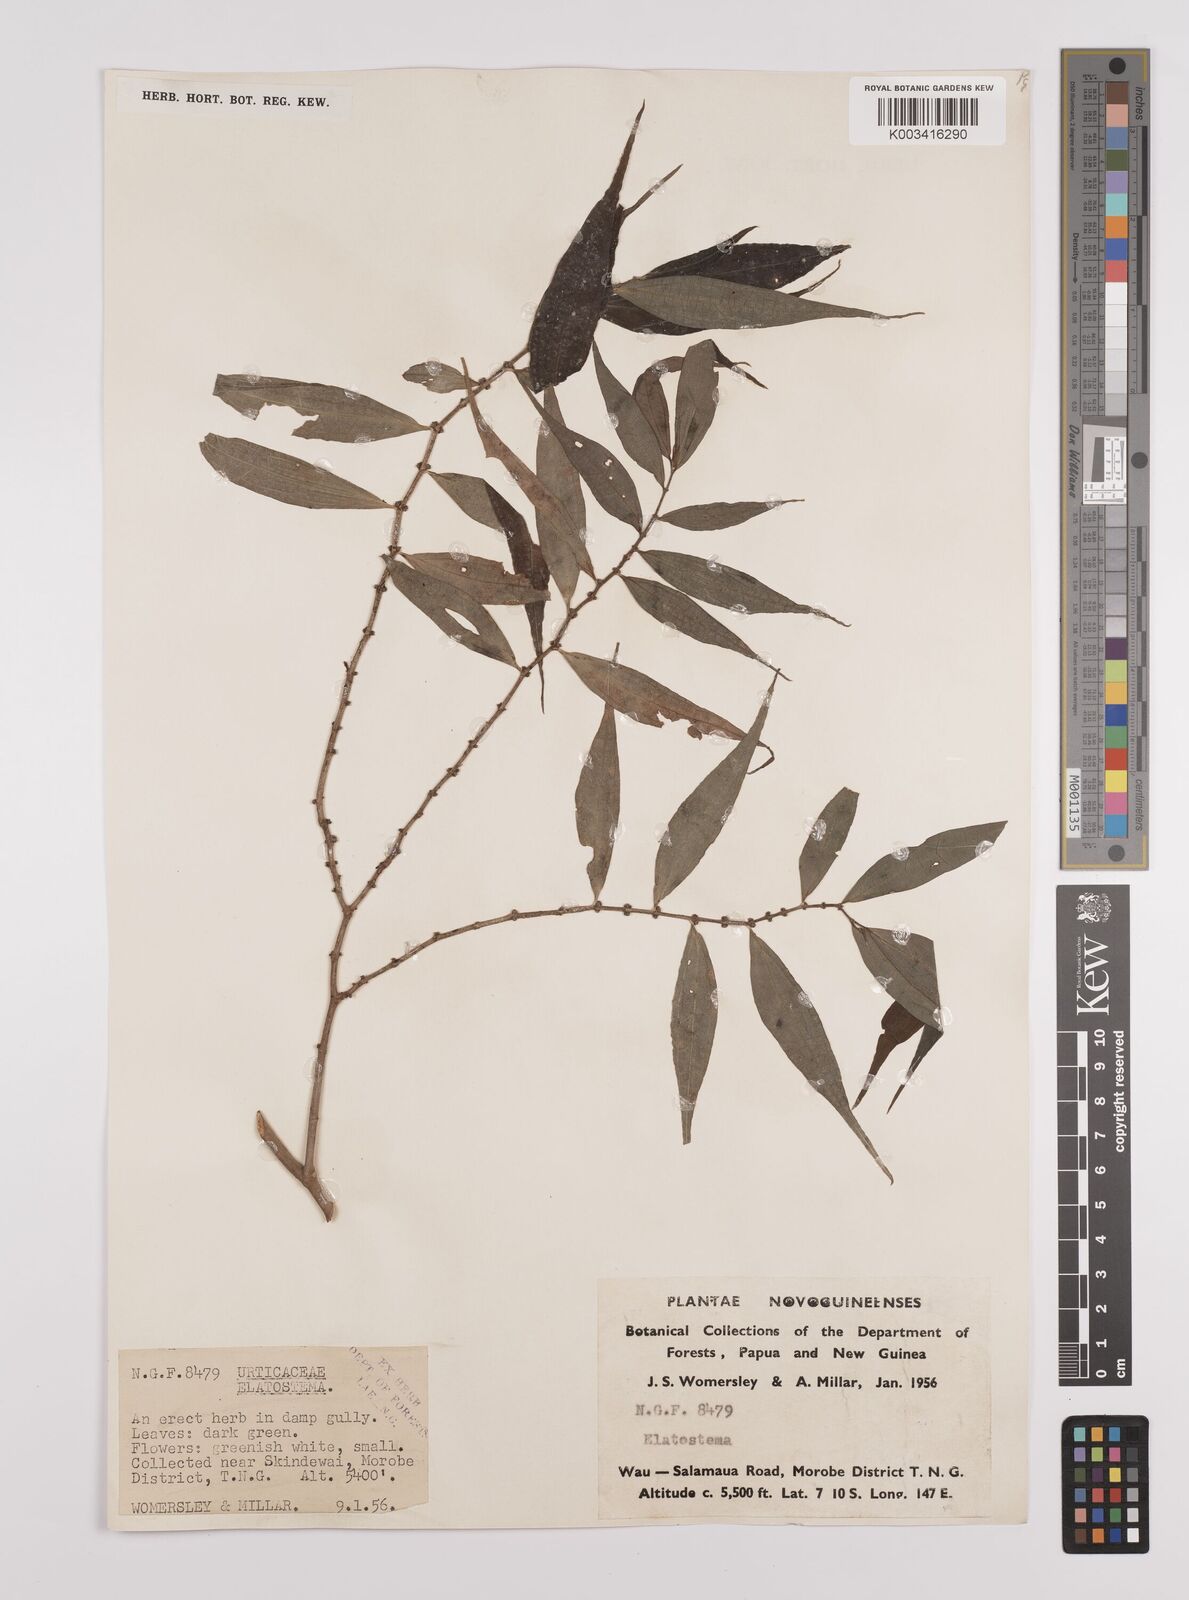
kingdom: Plantae
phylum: Tracheophyta
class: Magnoliopsida
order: Rosales
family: Urticaceae
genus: Elatostema
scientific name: Elatostema integrifolium
